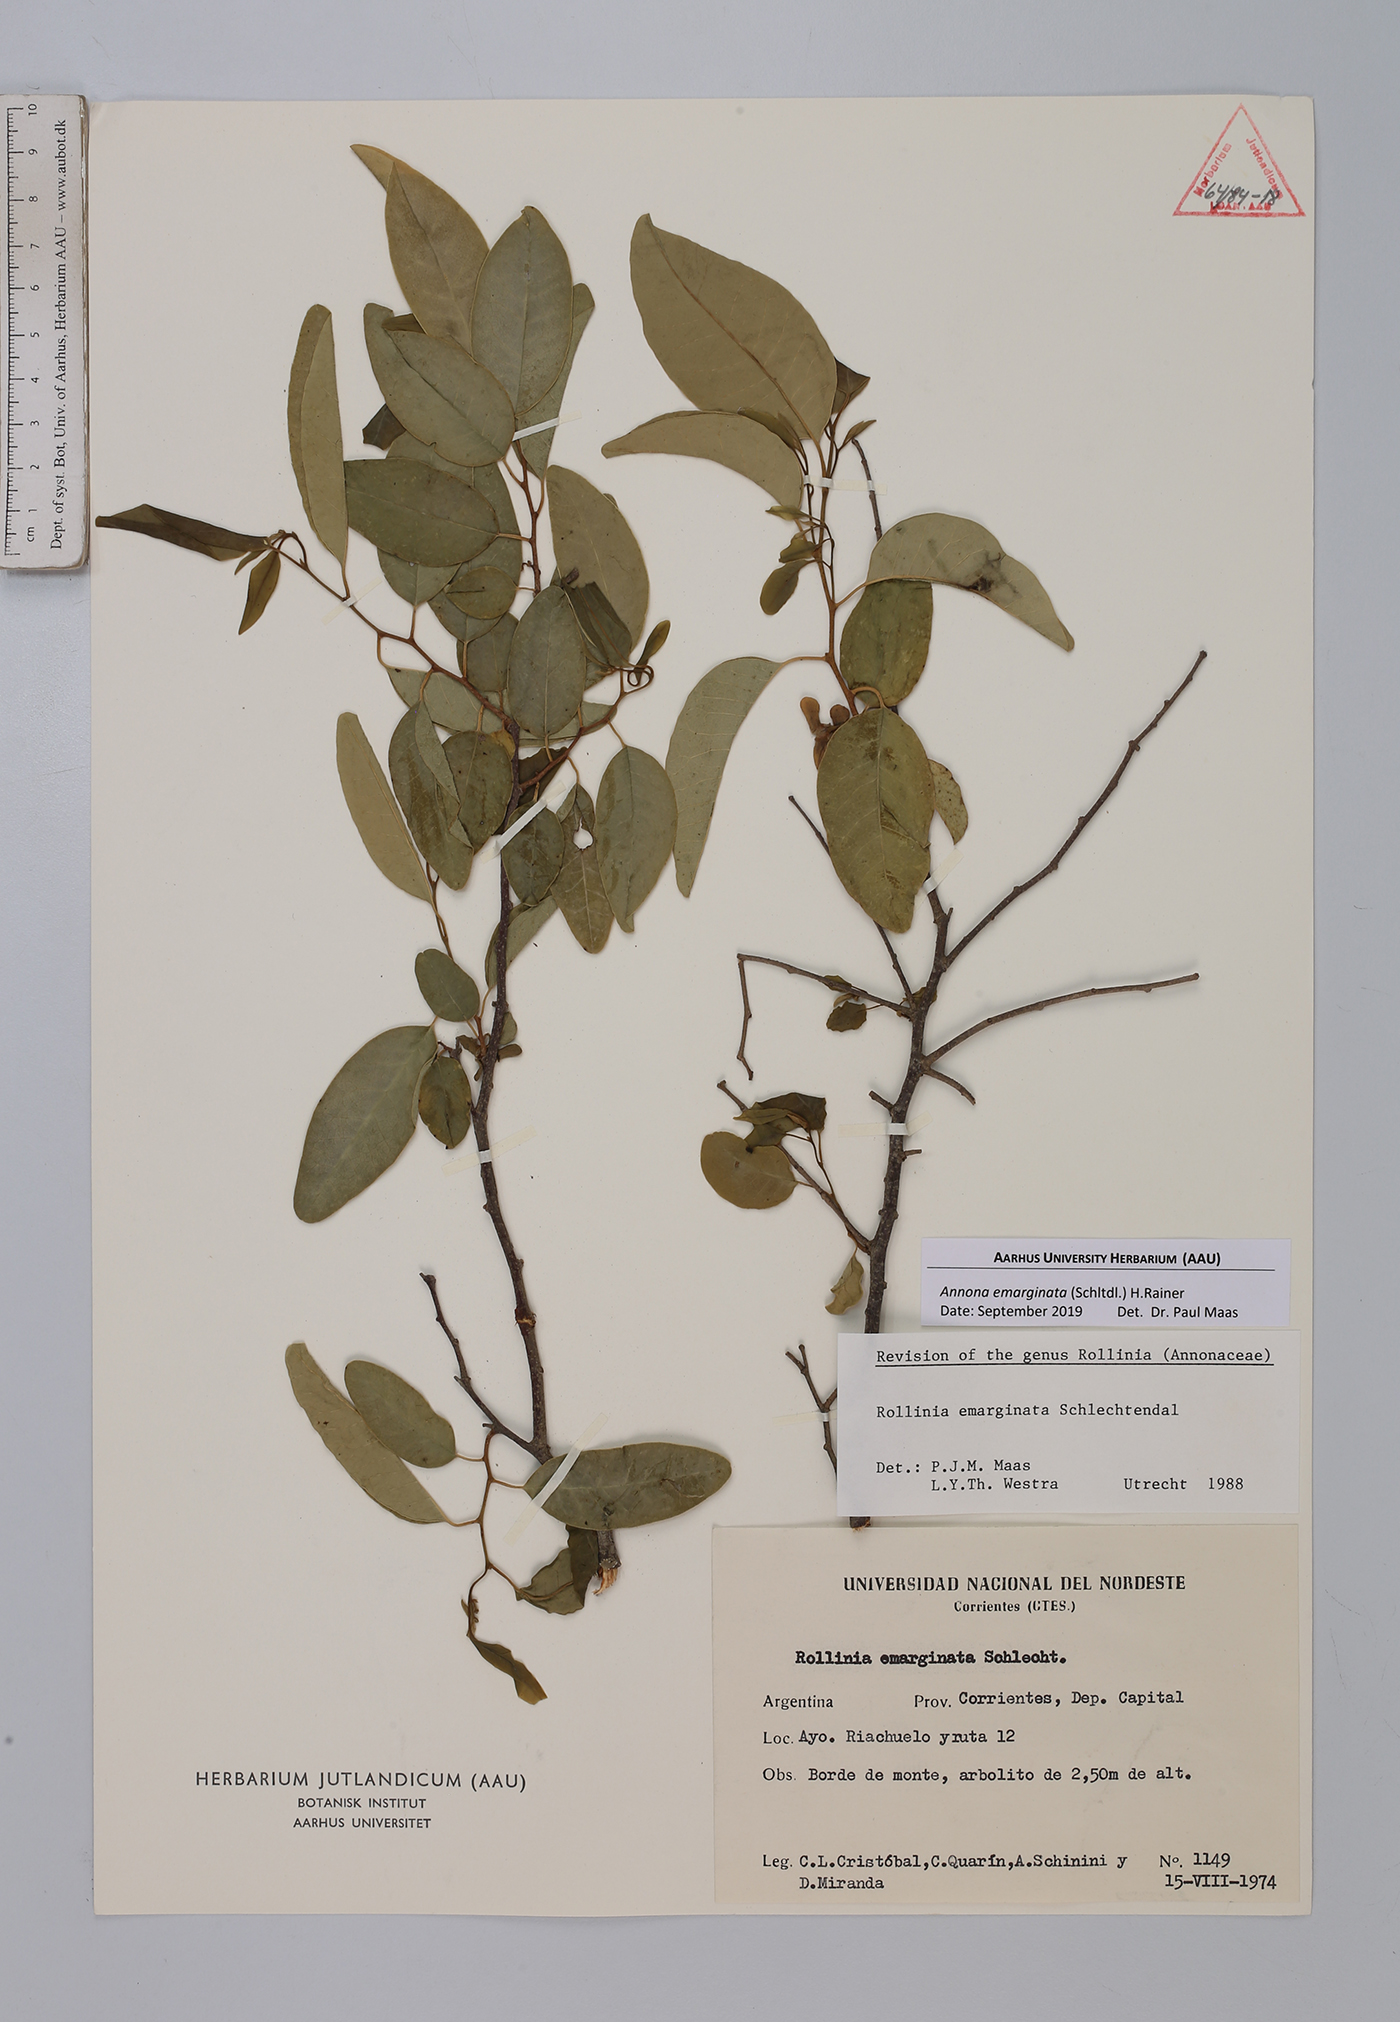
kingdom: Plantae
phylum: Tracheophyta
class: Magnoliopsida
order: Magnoliales
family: Annonaceae
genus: Annona
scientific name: Annona emarginata
